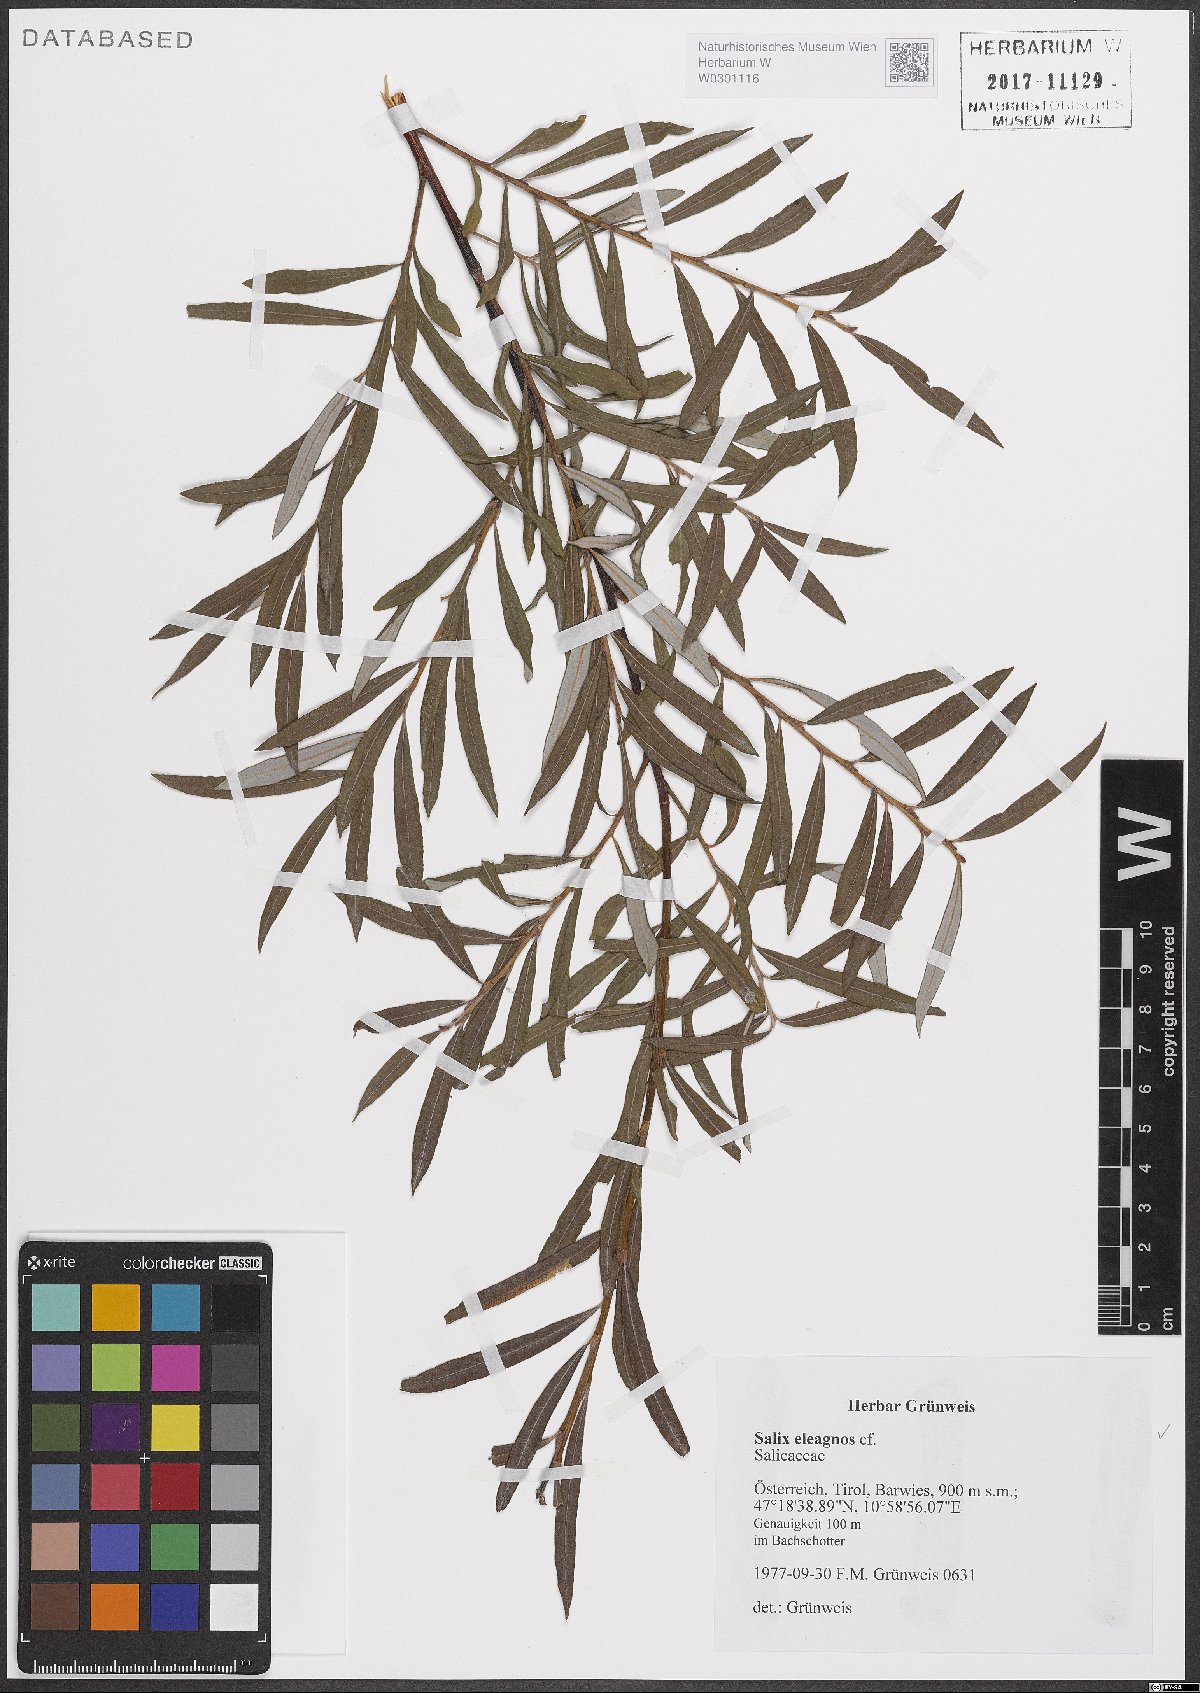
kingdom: Plantae
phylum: Tracheophyta
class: Magnoliopsida
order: Malpighiales
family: Salicaceae
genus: Salix
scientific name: Salix eleagnos
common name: Elaeagnus willow
